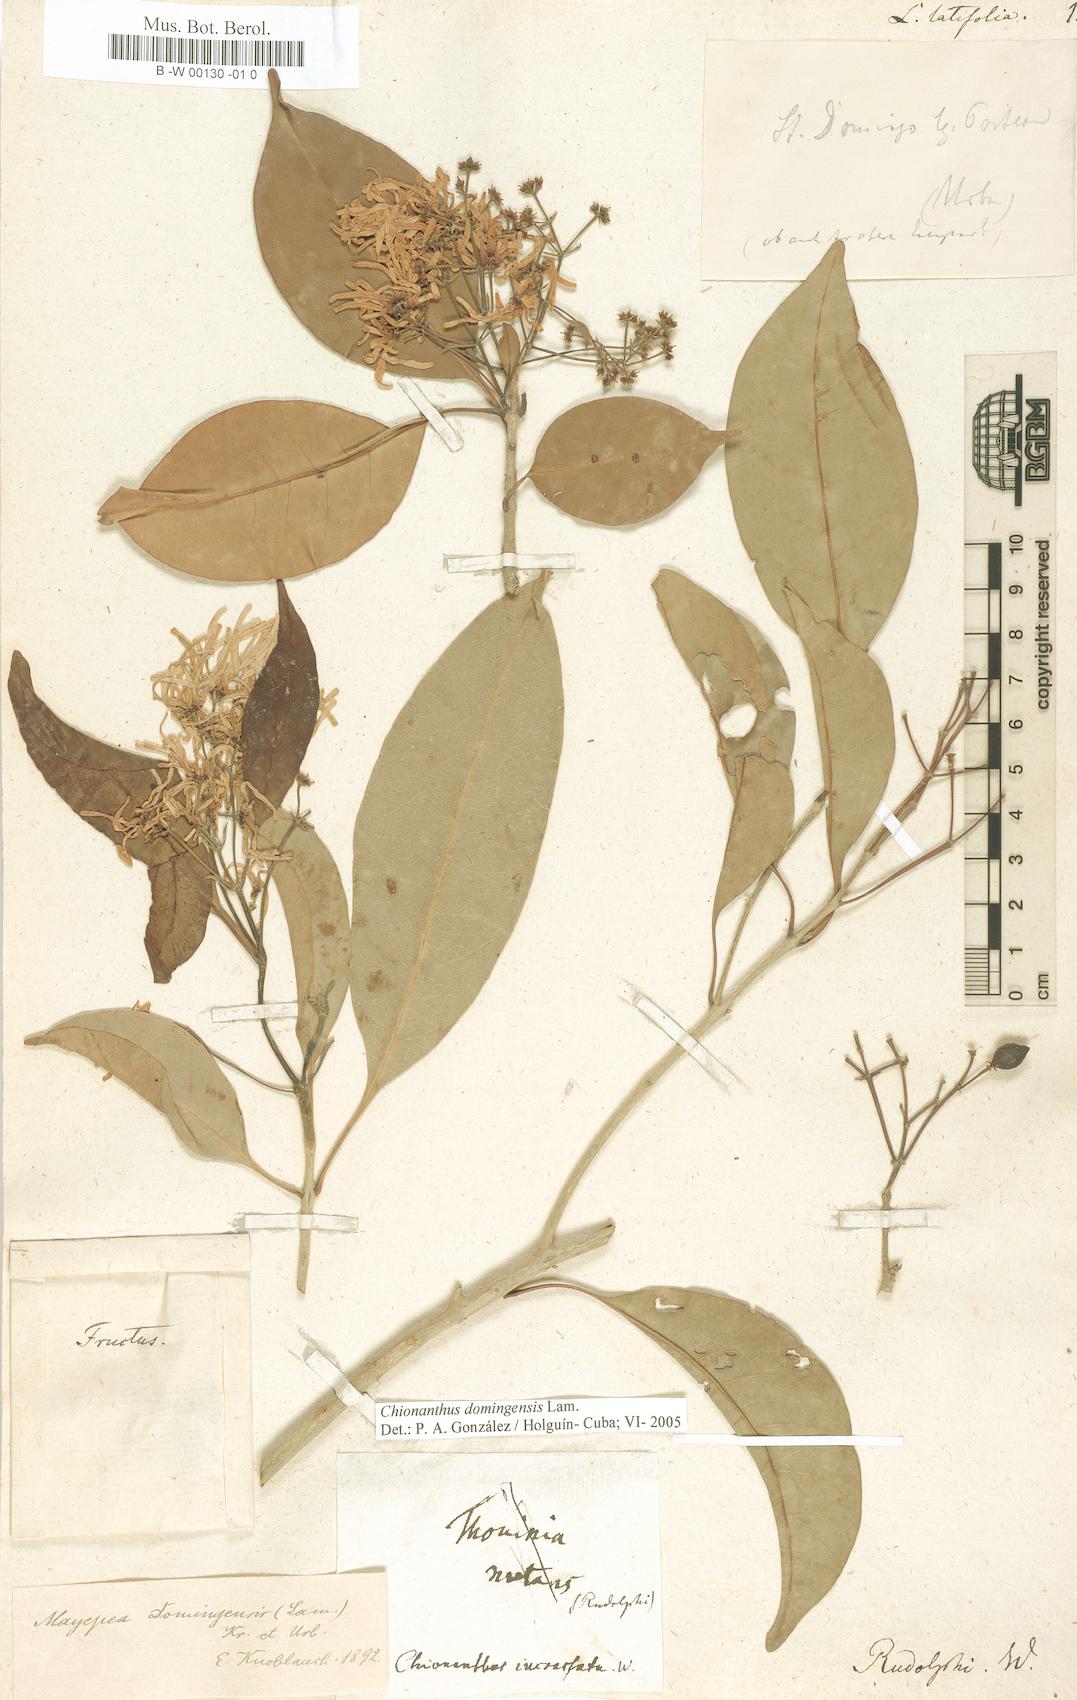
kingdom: Plantae
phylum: Tracheophyta
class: Magnoliopsida
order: Lamiales
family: Oleaceae
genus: Chionanthus
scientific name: Chionanthus ligustrinus
